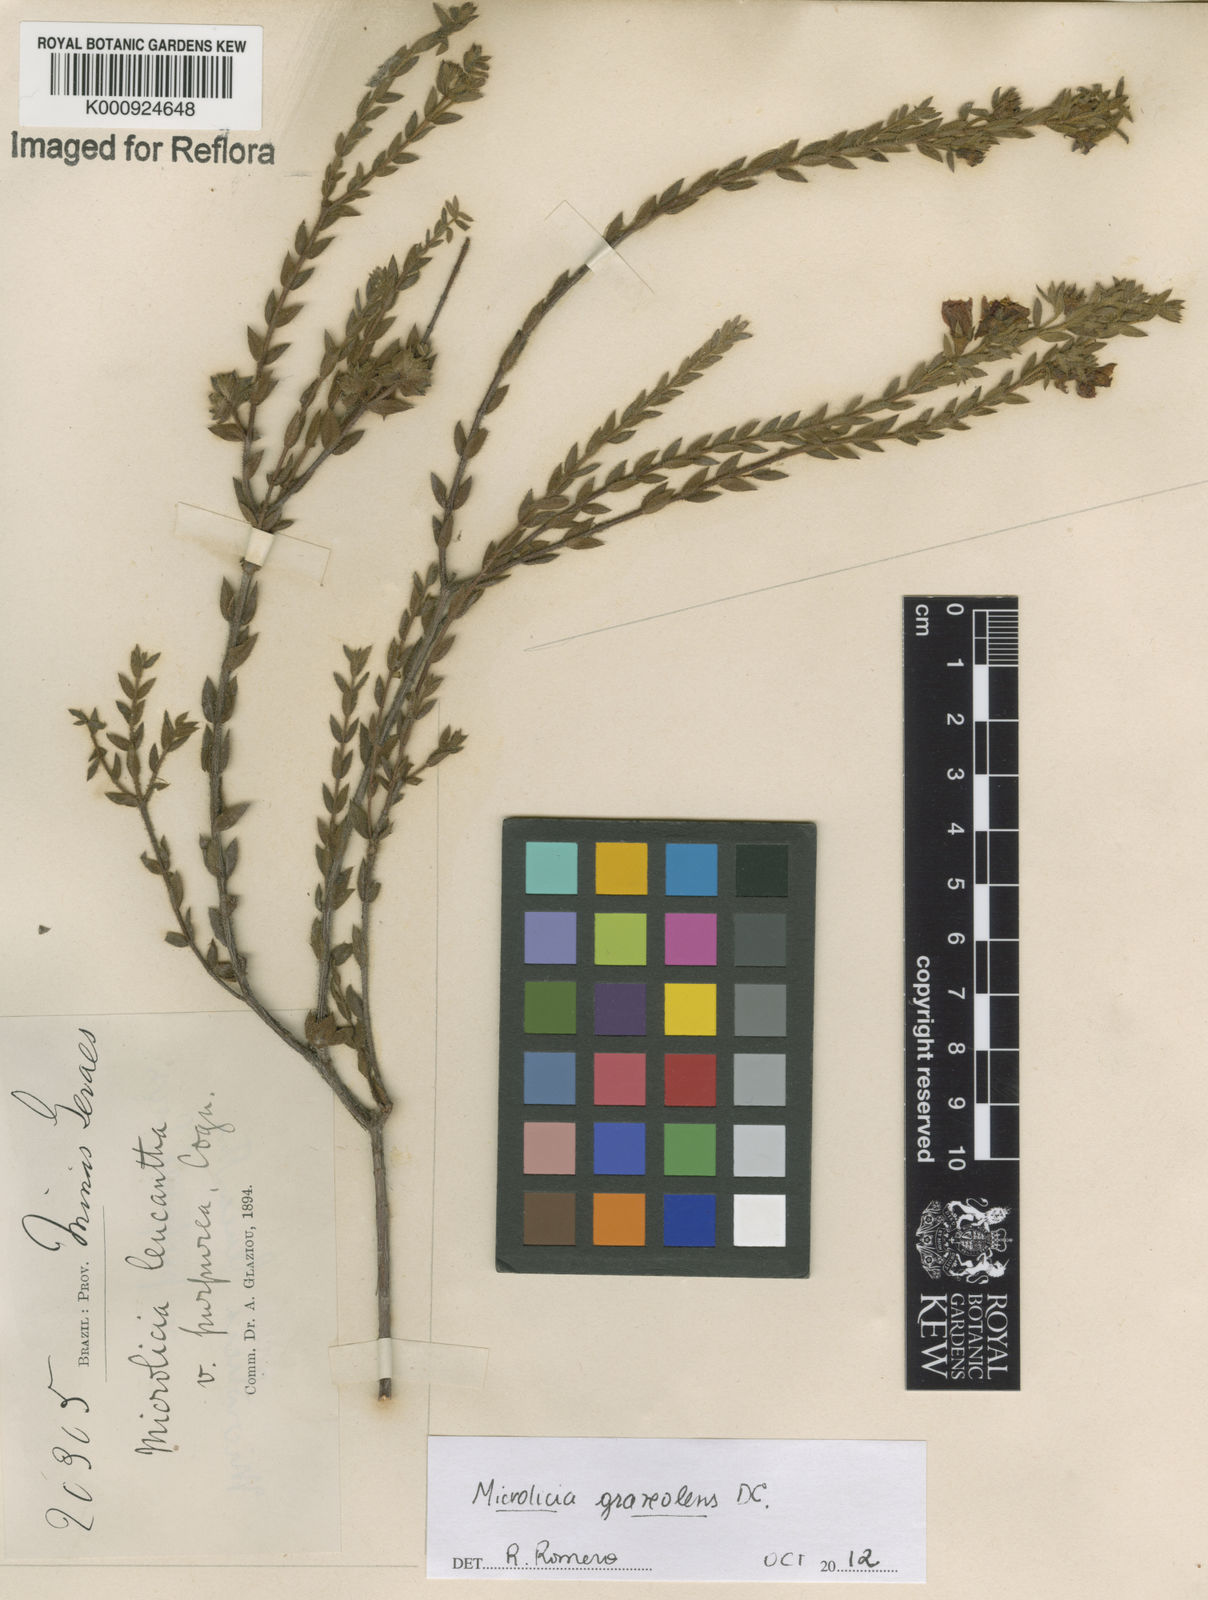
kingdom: Plantae
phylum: Tracheophyta
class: Magnoliopsida
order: Myrtales
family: Melastomataceae
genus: Microlicia
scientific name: Microlicia graveolens
